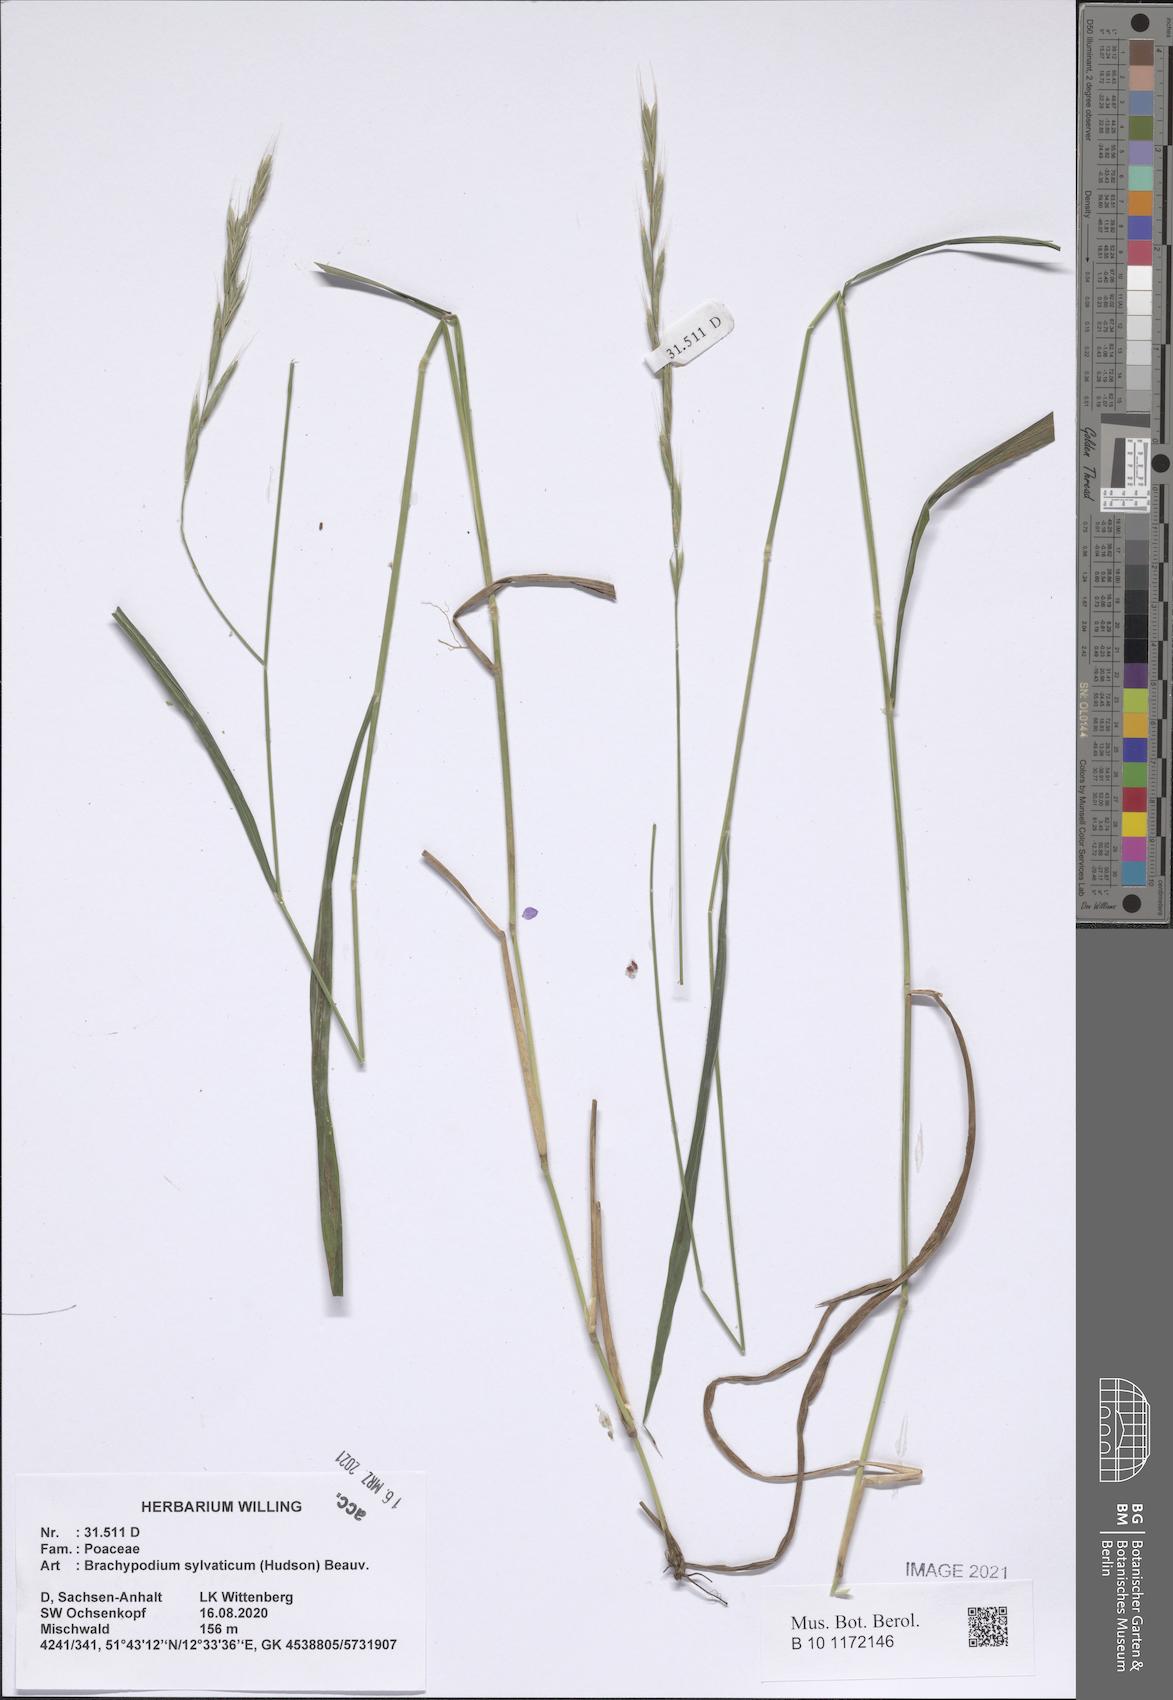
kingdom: Plantae
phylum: Tracheophyta
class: Liliopsida
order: Poales
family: Poaceae
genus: Brachypodium
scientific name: Brachypodium sylvaticum
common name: False-brome
